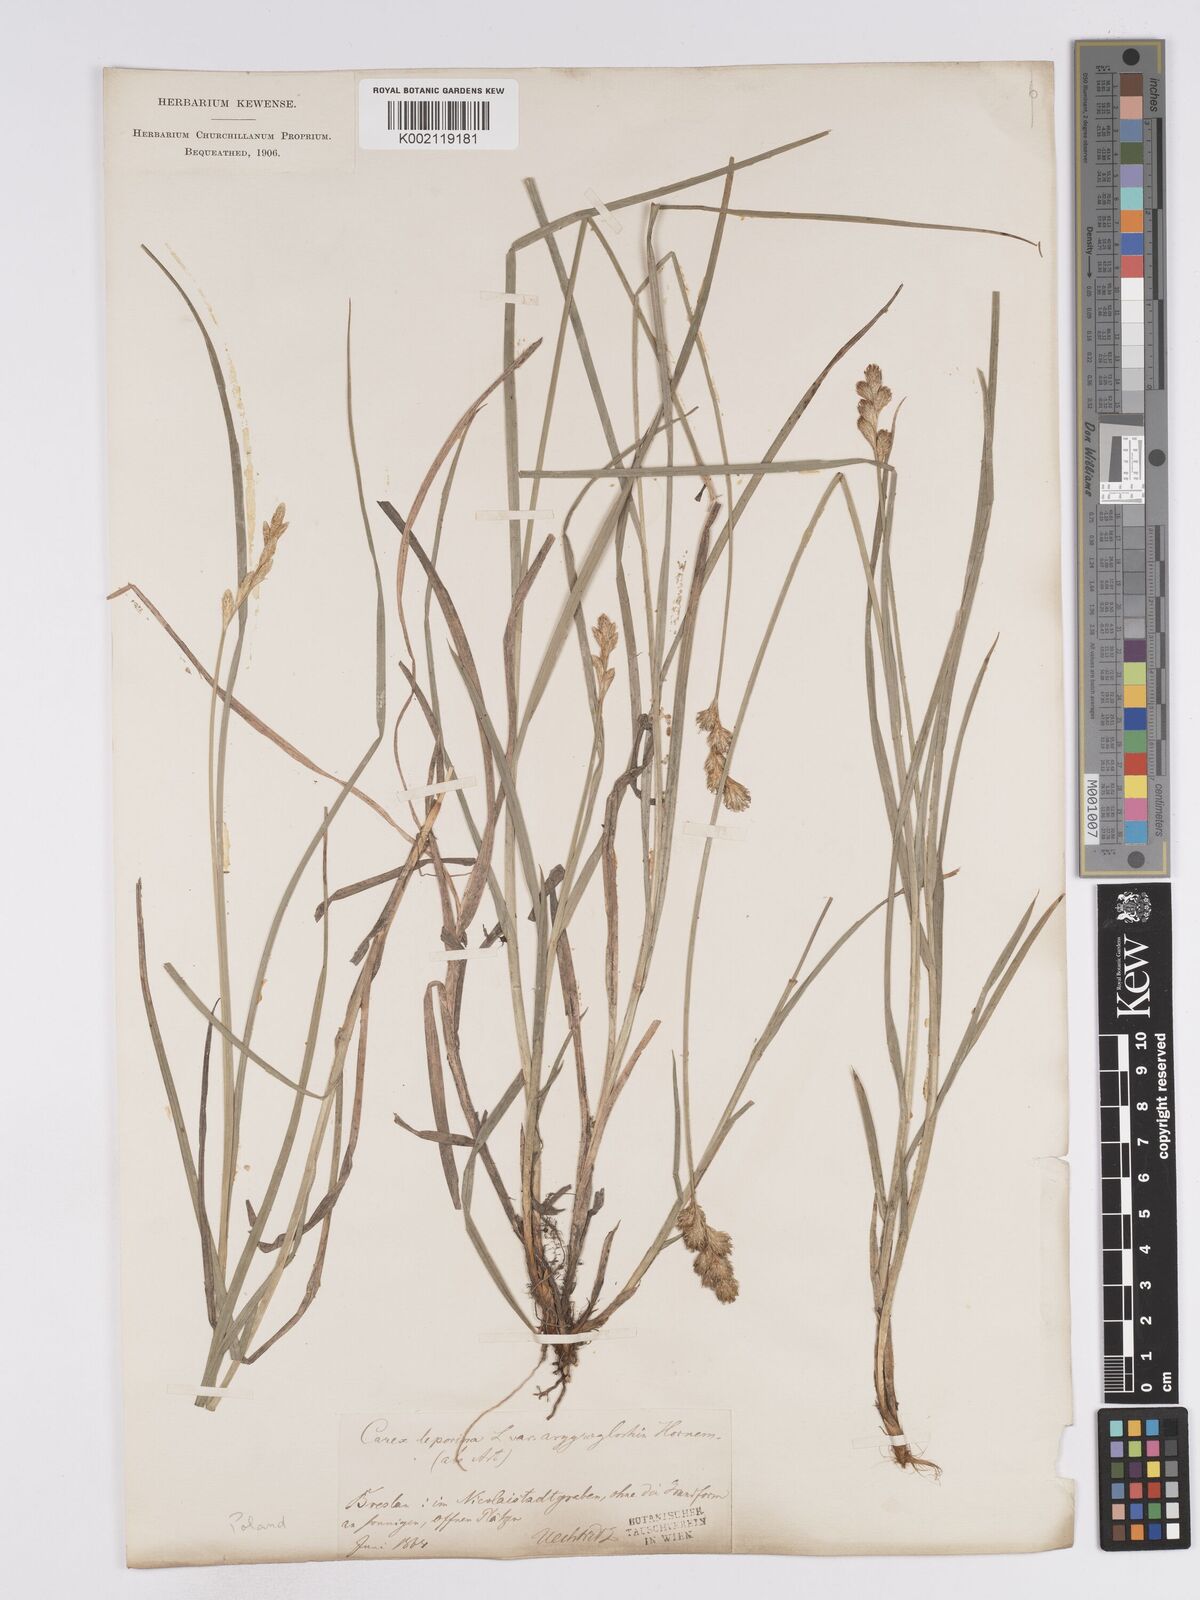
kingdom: Plantae
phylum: Tracheophyta
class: Liliopsida
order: Poales
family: Cyperaceae
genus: Carex
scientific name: Carex leporina
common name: Oval sedge
